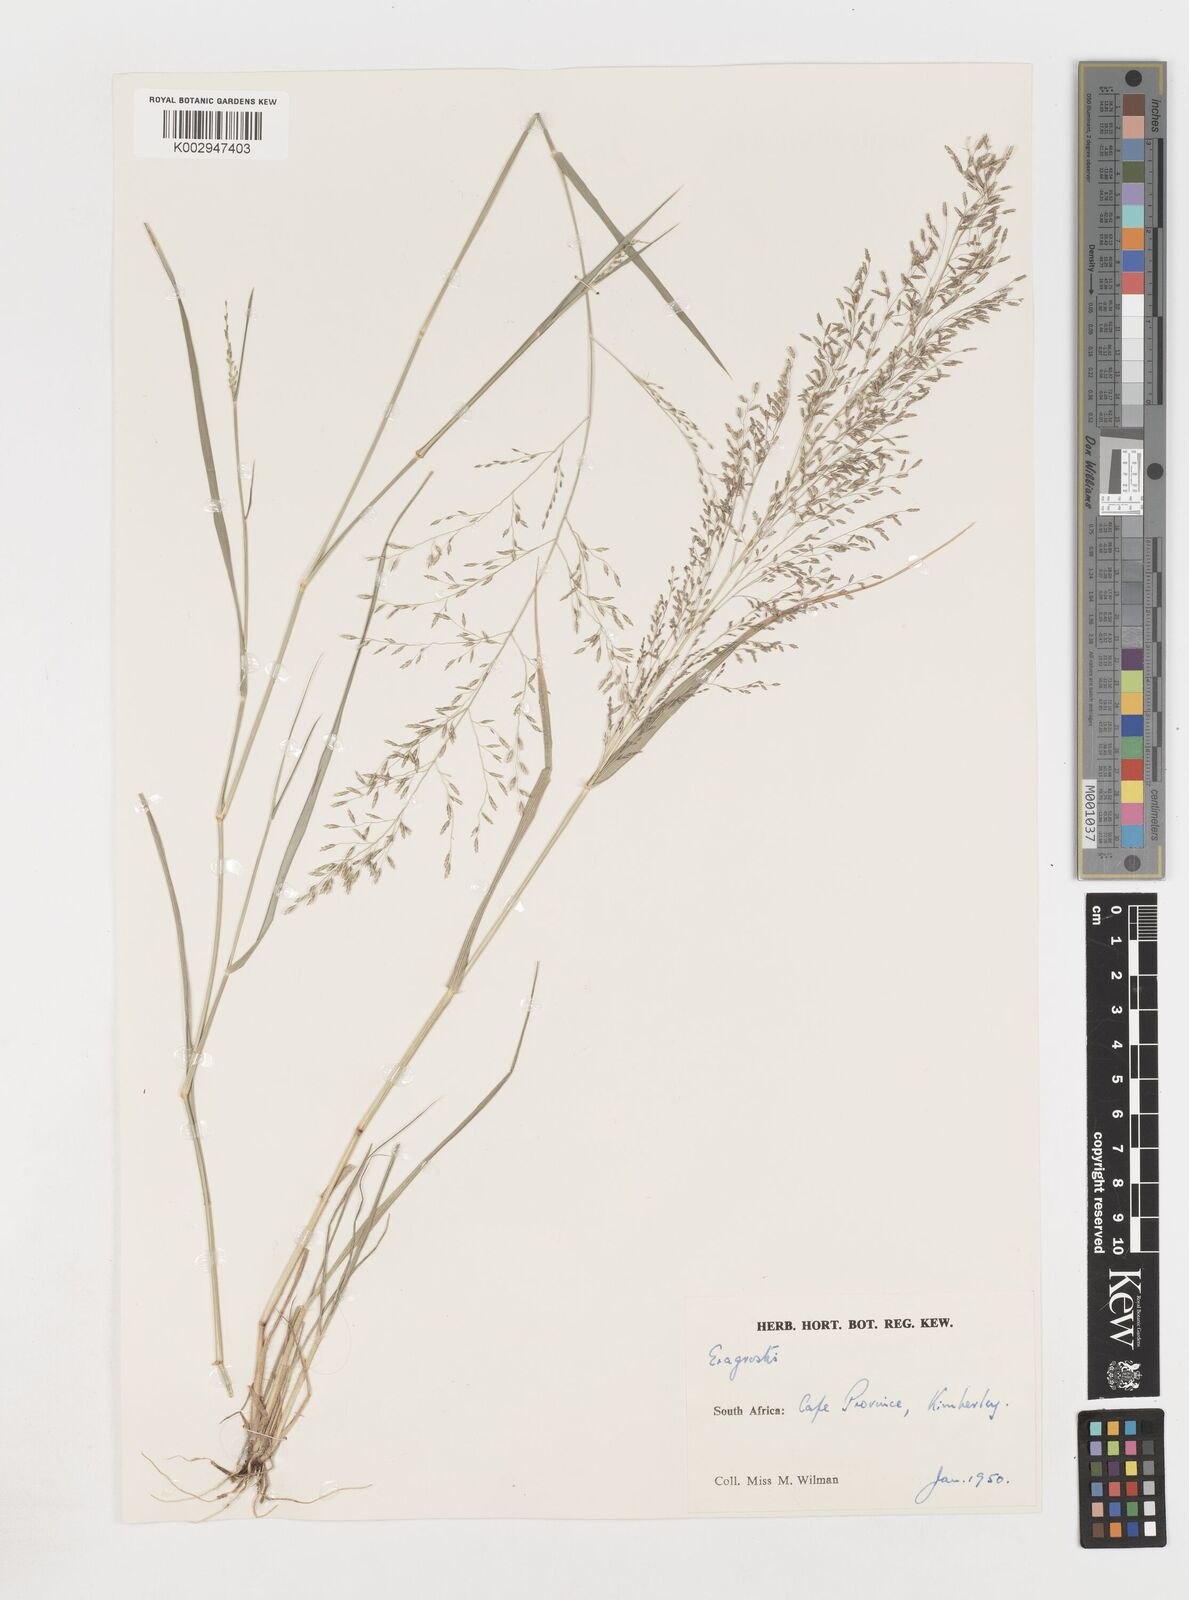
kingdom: Plantae
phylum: Tracheophyta
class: Liliopsida
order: Poales
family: Poaceae
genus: Eragrostis
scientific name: Eragrostis
